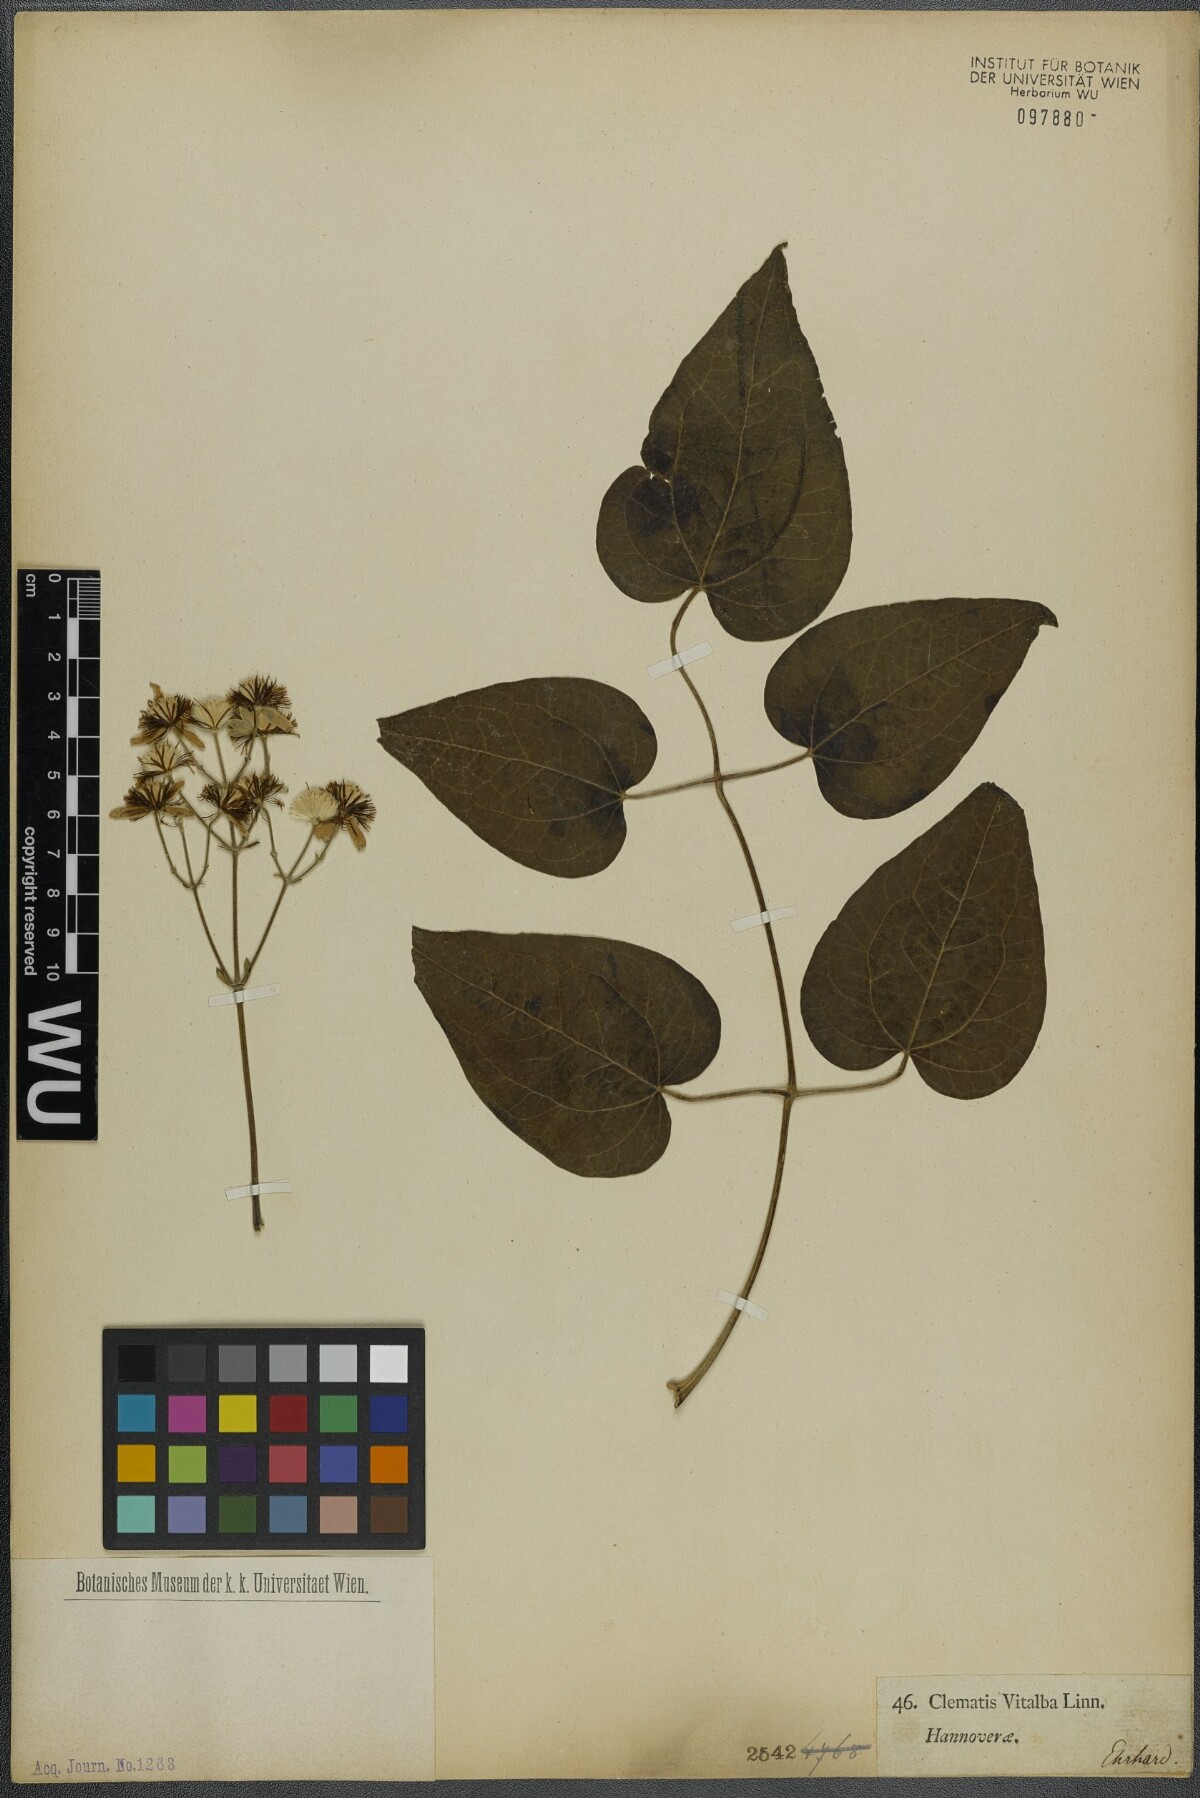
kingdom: Plantae
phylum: Tracheophyta
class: Magnoliopsida
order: Ranunculales
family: Ranunculaceae
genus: Clematis
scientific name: Clematis vitalba
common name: Evergreen clematis
